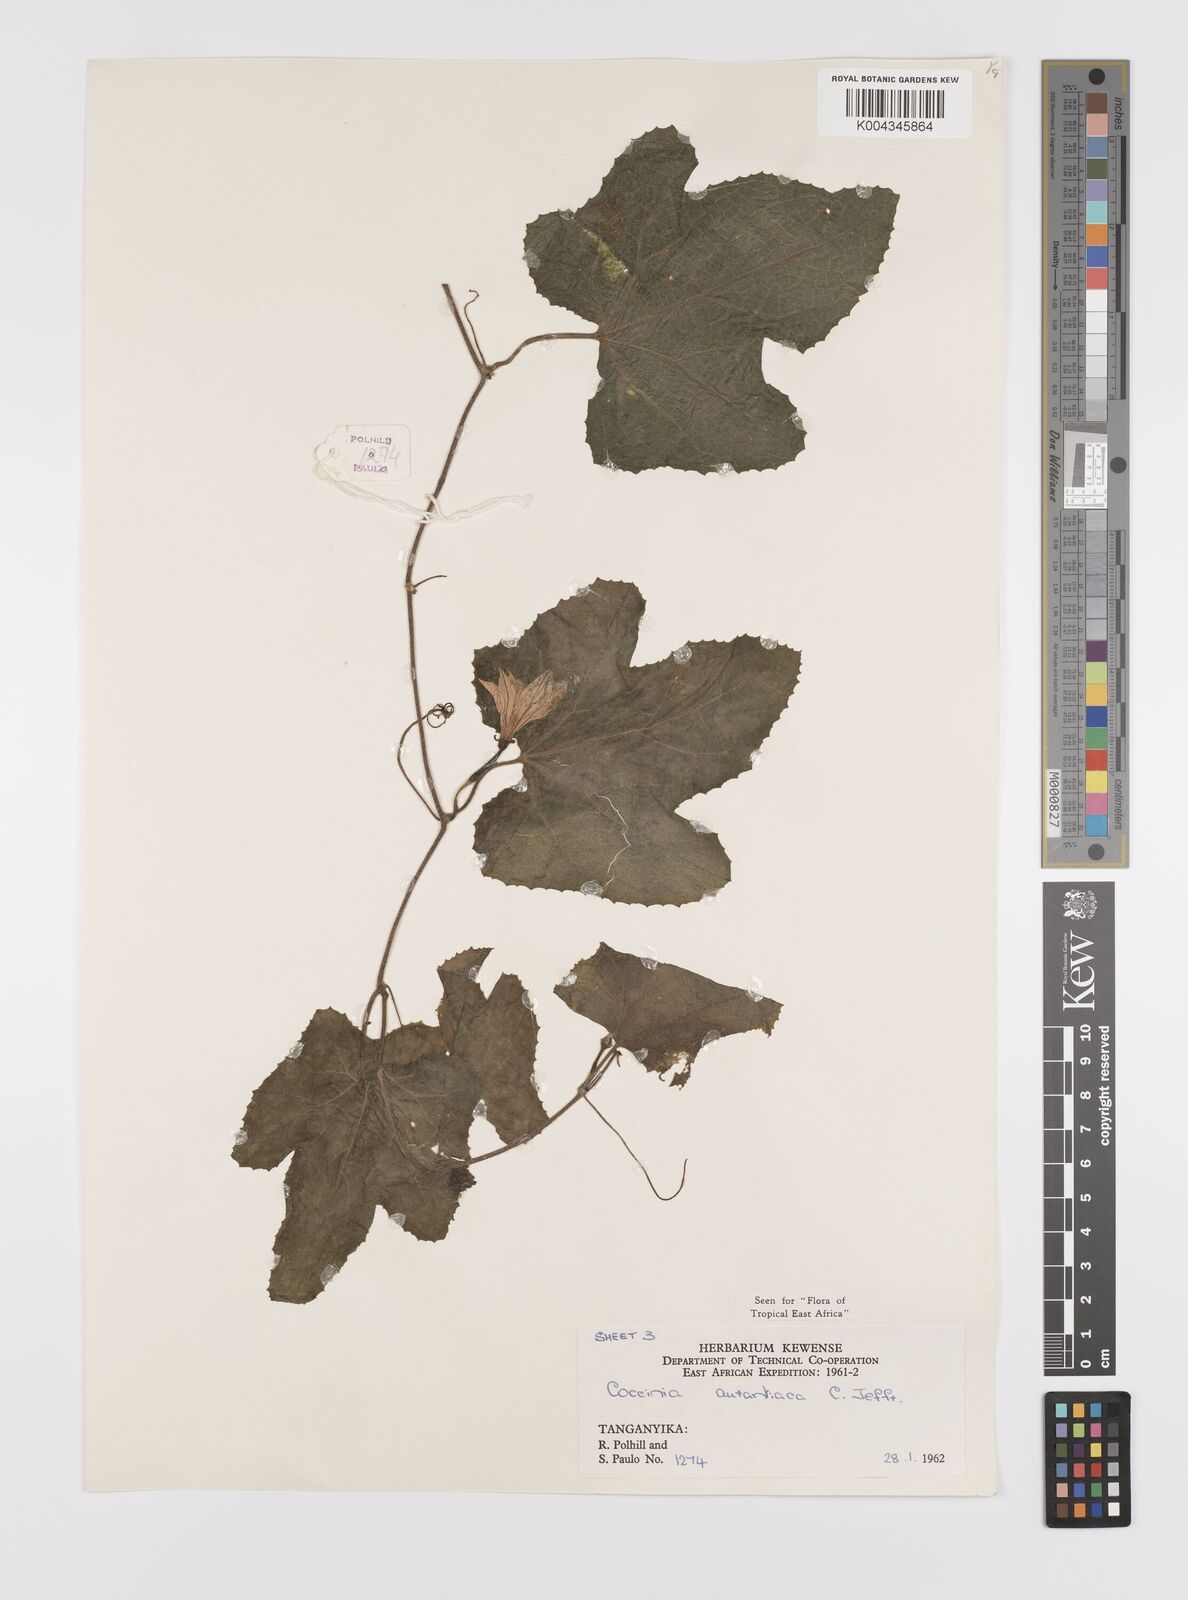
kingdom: Plantae
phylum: Tracheophyta
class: Magnoliopsida
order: Cucurbitales
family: Cucurbitaceae
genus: Coccinia
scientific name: Coccinia adoensis
